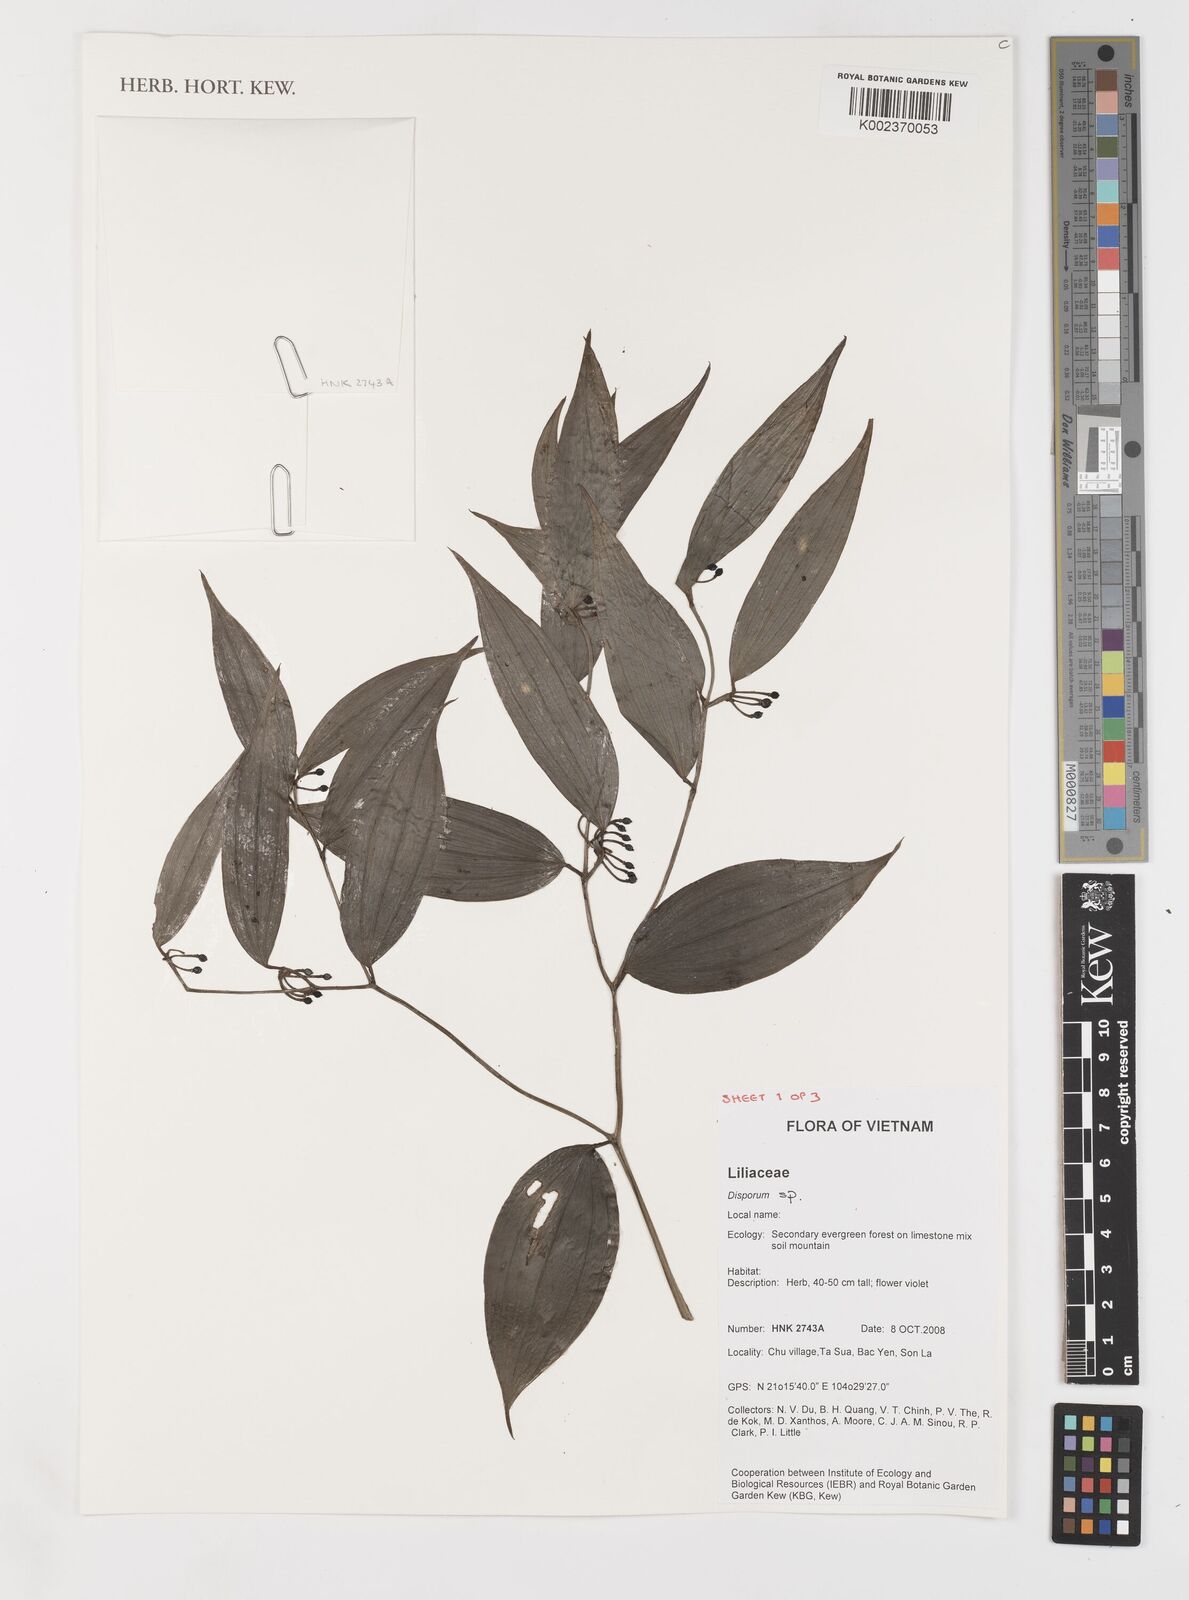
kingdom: Plantae
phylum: Tracheophyta
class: Liliopsida
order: Liliales
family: Colchicaceae
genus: Disporum
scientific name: Disporum
